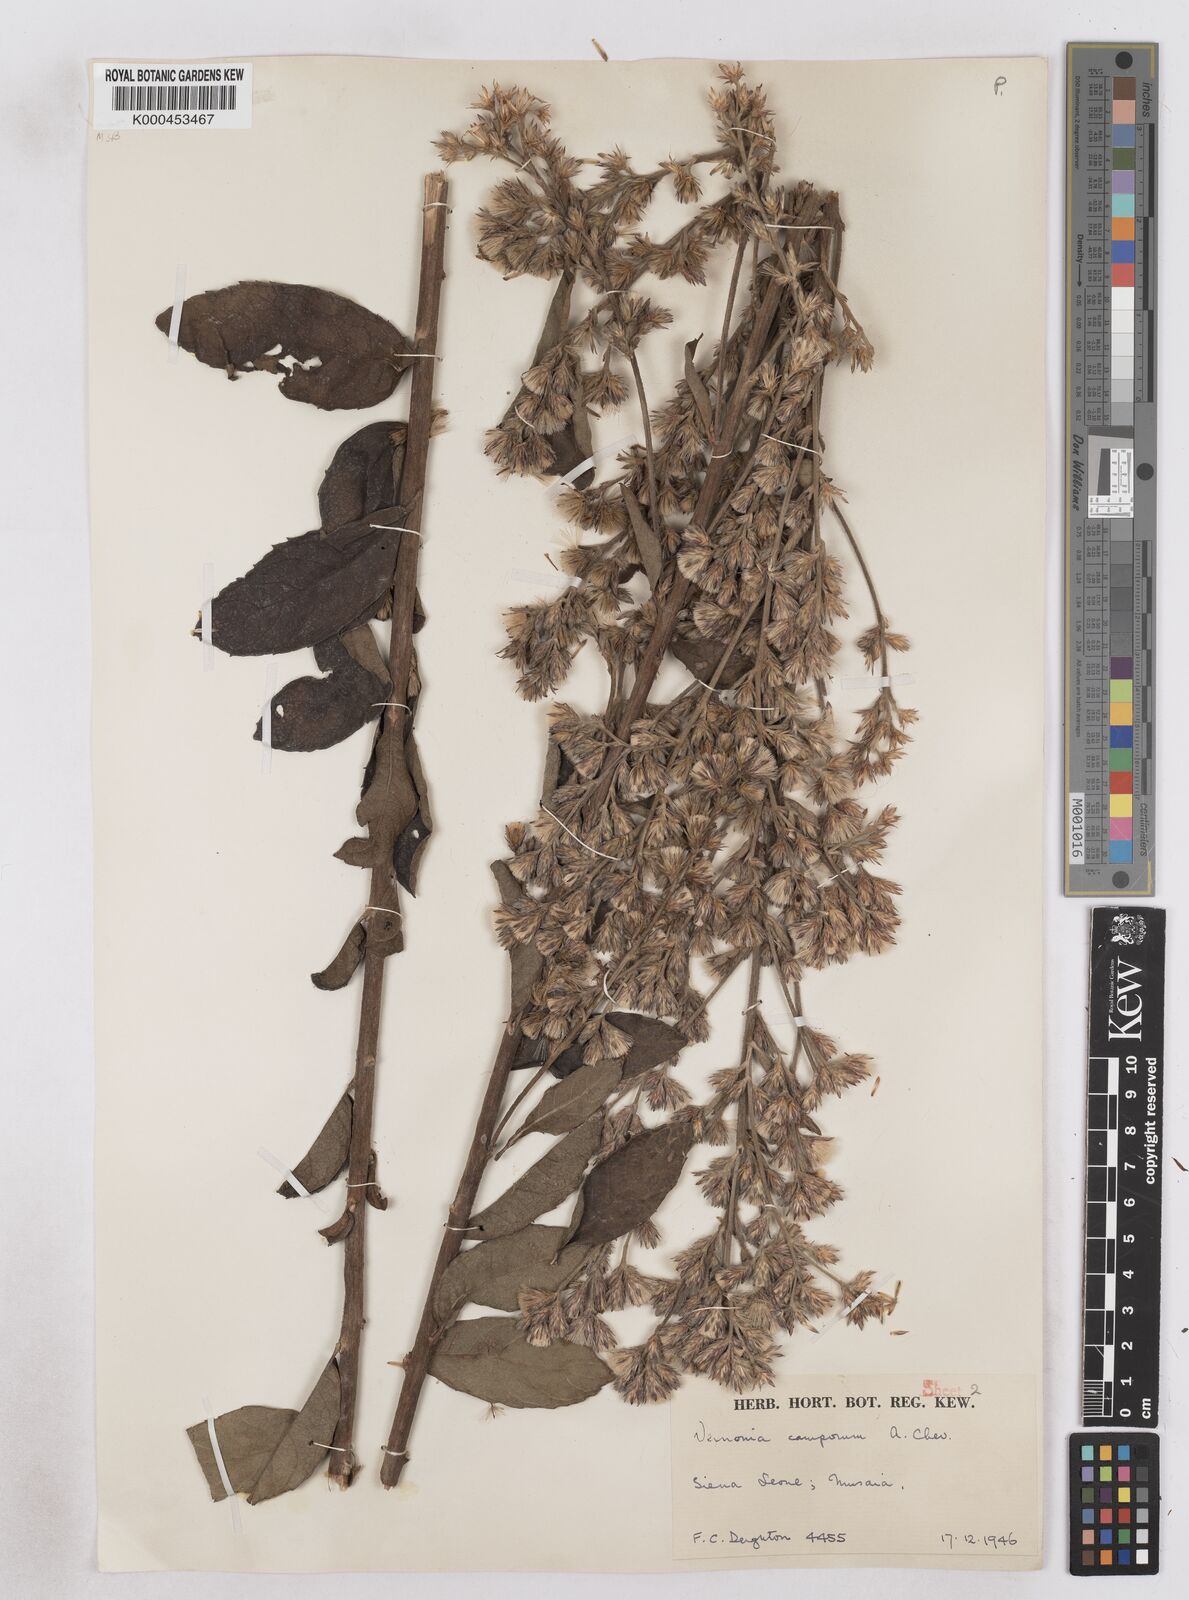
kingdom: Plantae
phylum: Tracheophyta
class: Magnoliopsida
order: Asterales
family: Asteraceae
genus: Vernoniastrum
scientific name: Vernoniastrum camporum
